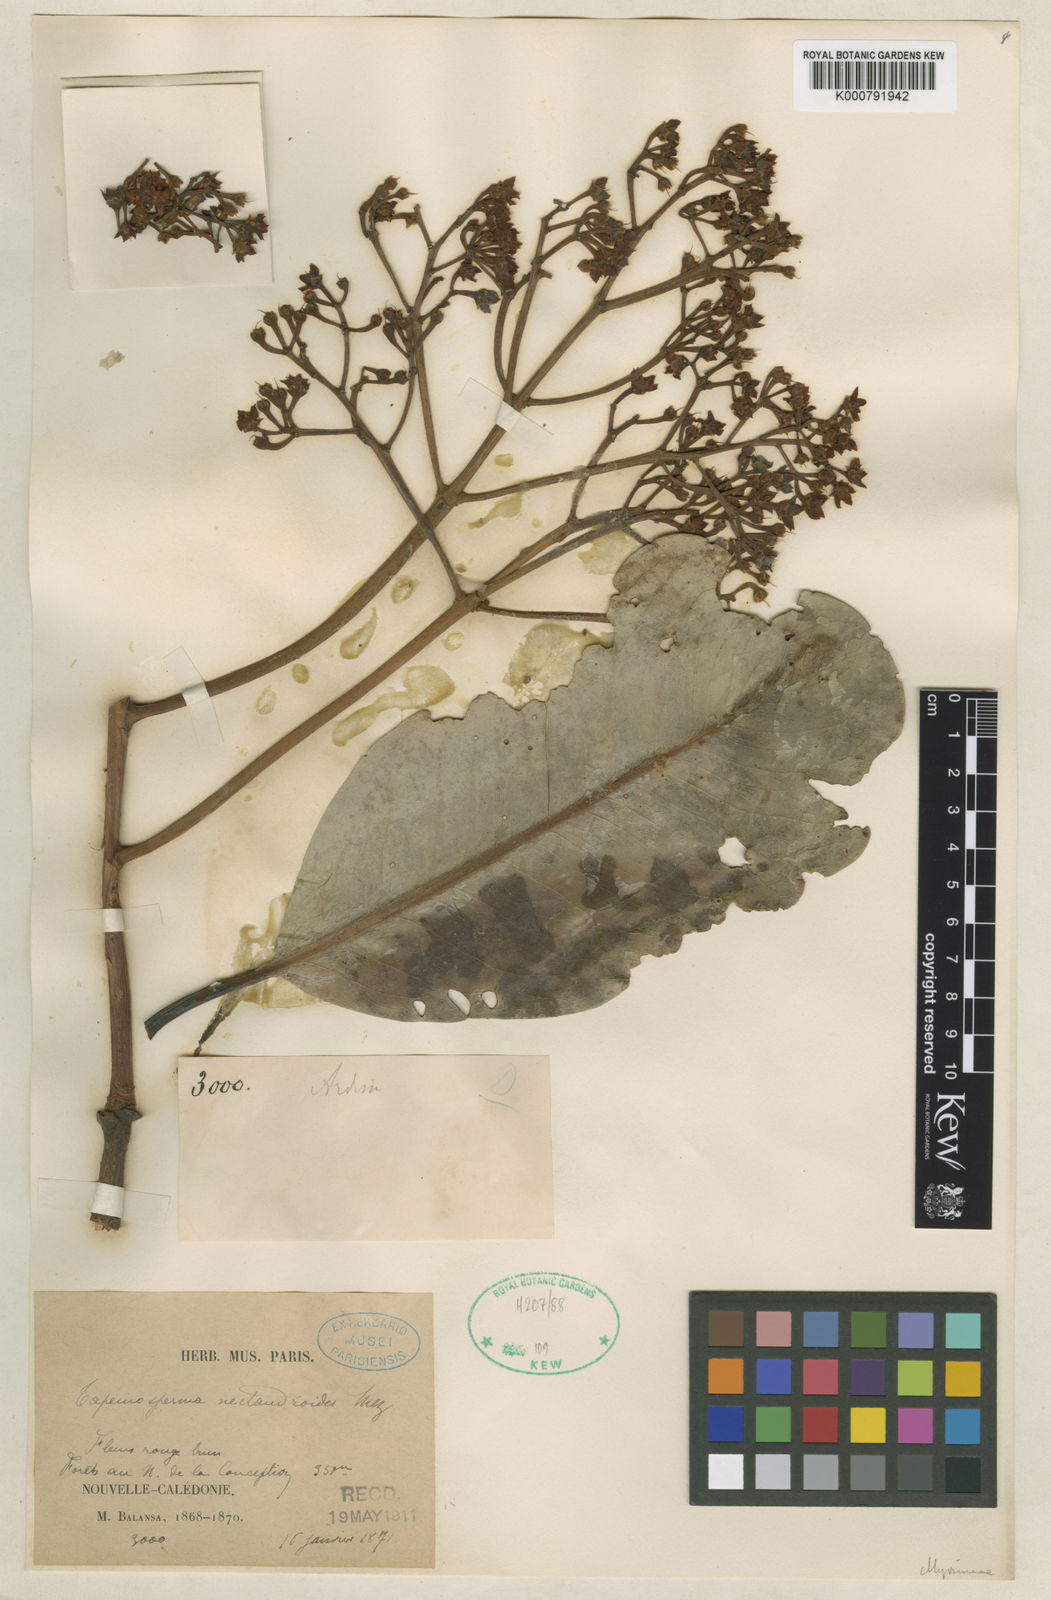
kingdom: Plantae
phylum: Tracheophyta
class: Magnoliopsida
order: Ericales
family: Primulaceae
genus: Tapeinosperma
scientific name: Tapeinosperma nectandroides
